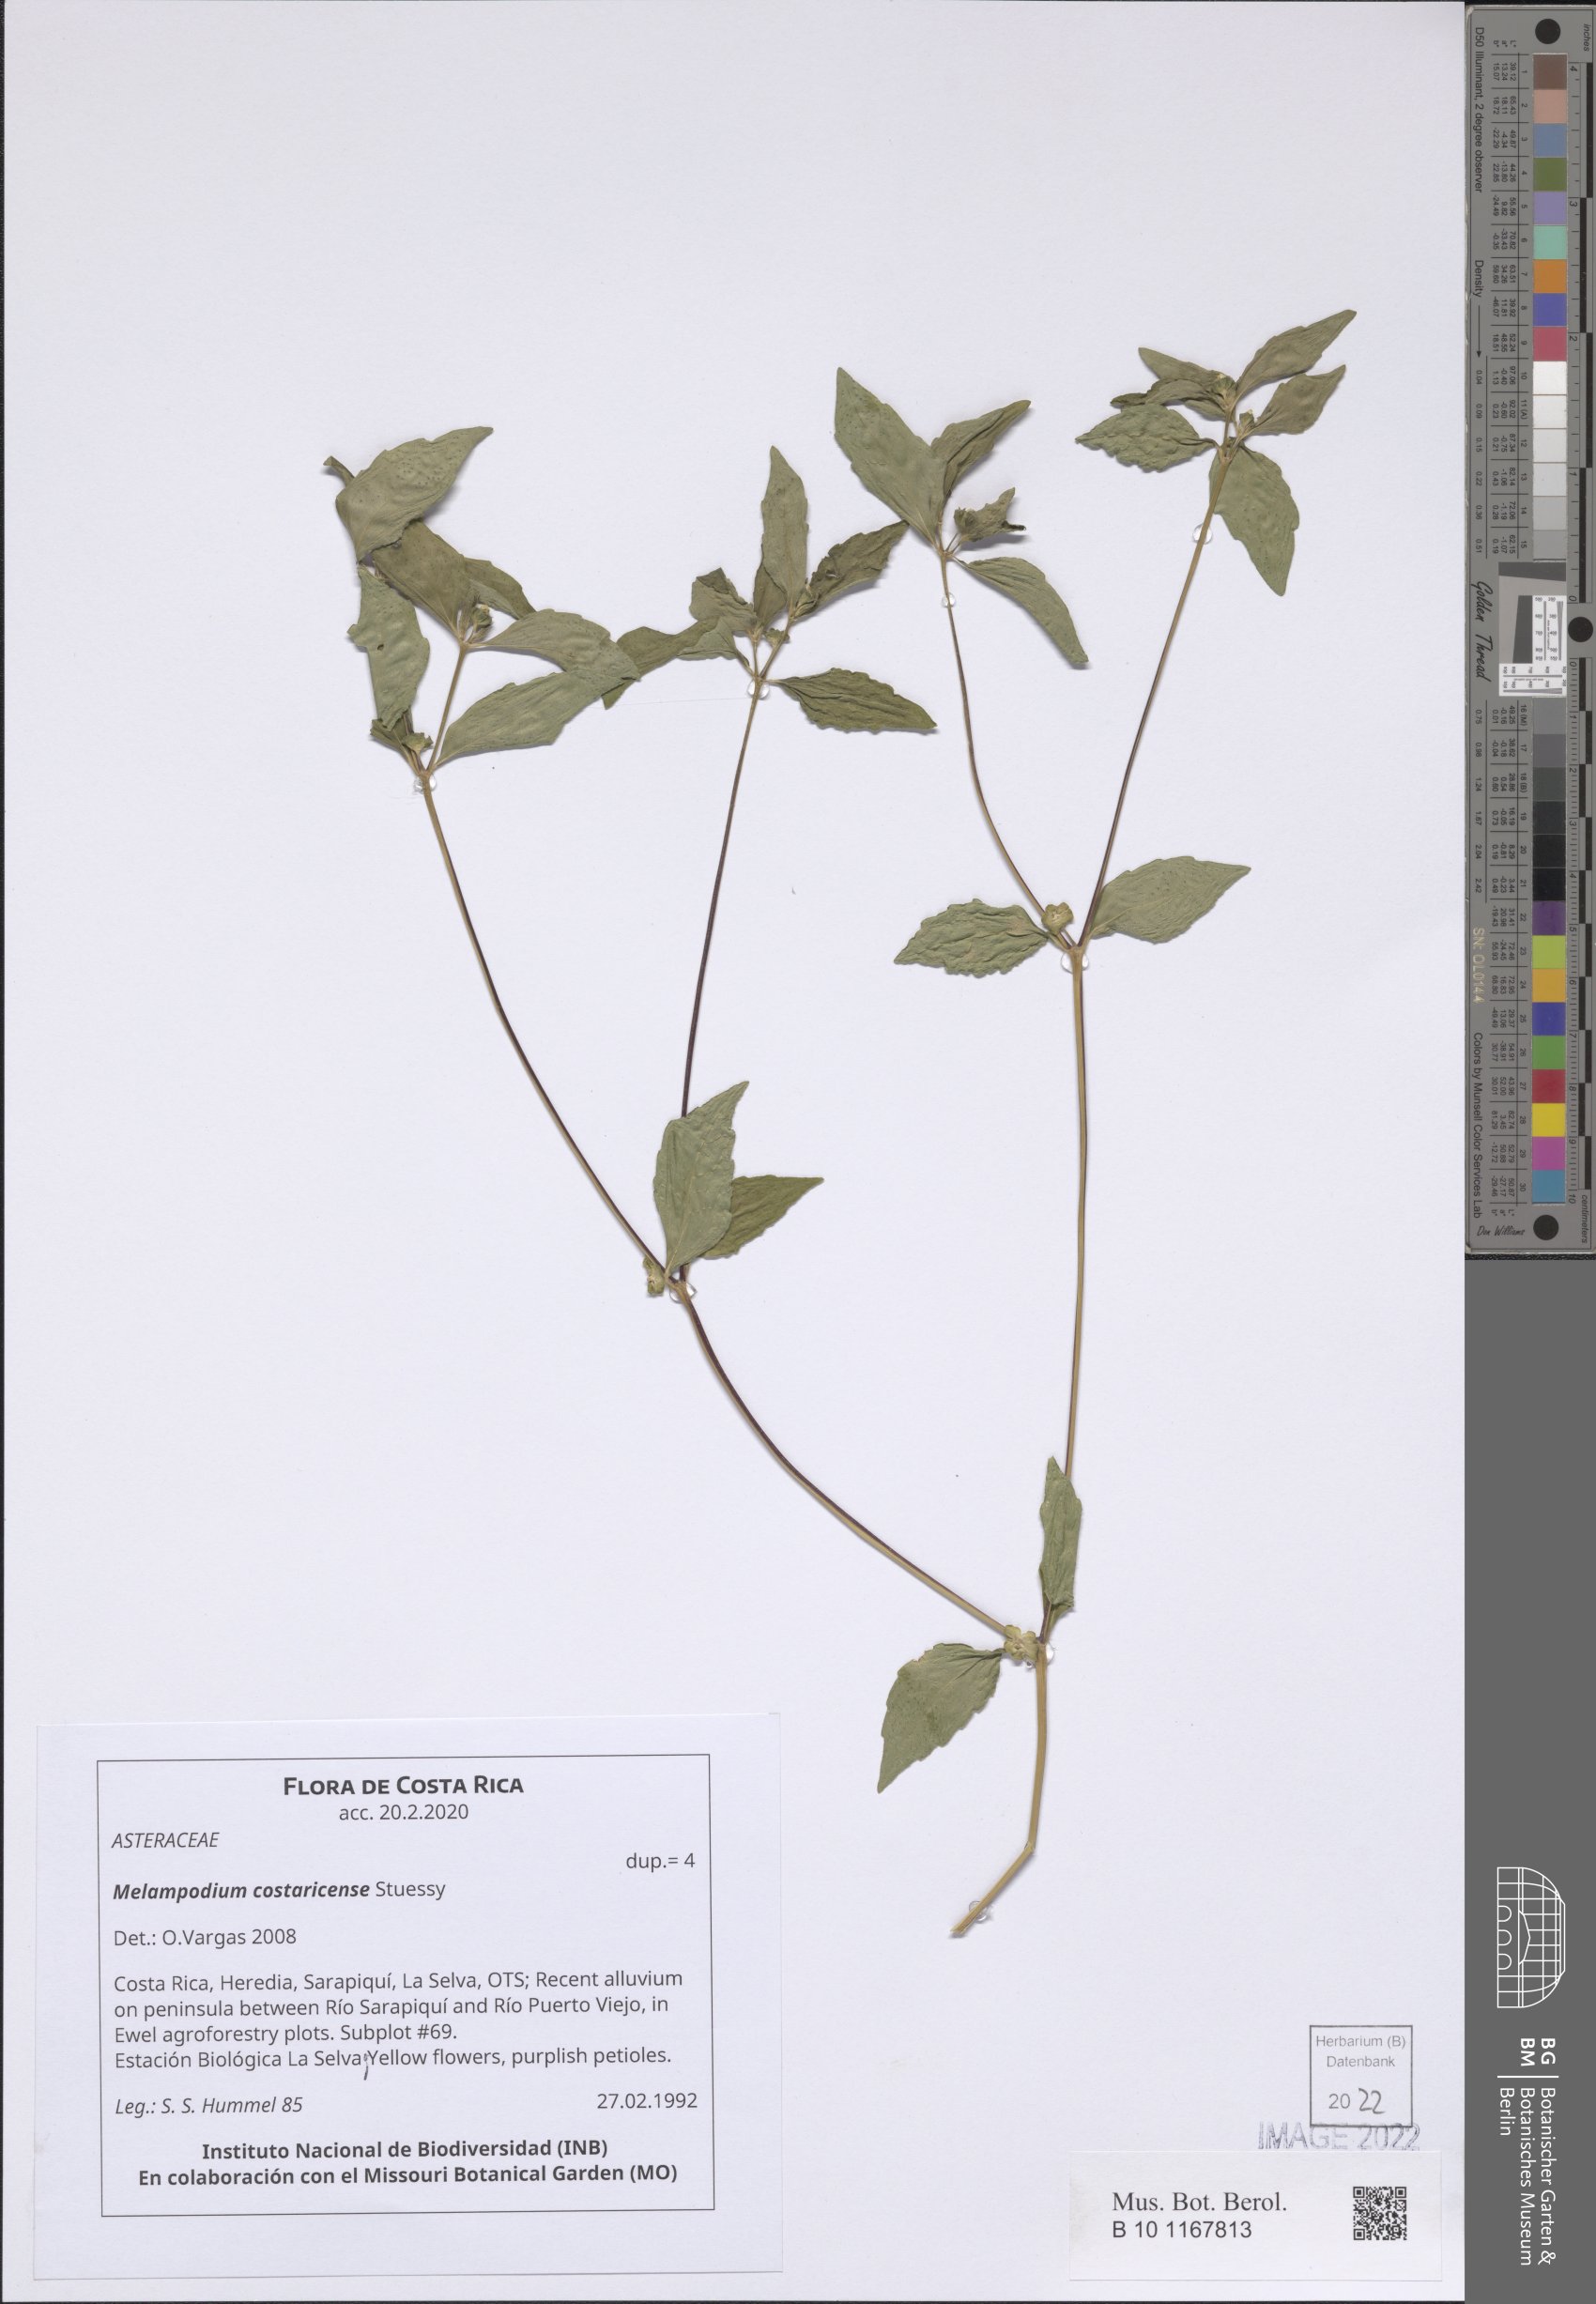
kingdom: Plantae
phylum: Tracheophyta
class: Magnoliopsida
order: Asterales
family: Asteraceae
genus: Melampodium
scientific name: Melampodium costaricense
